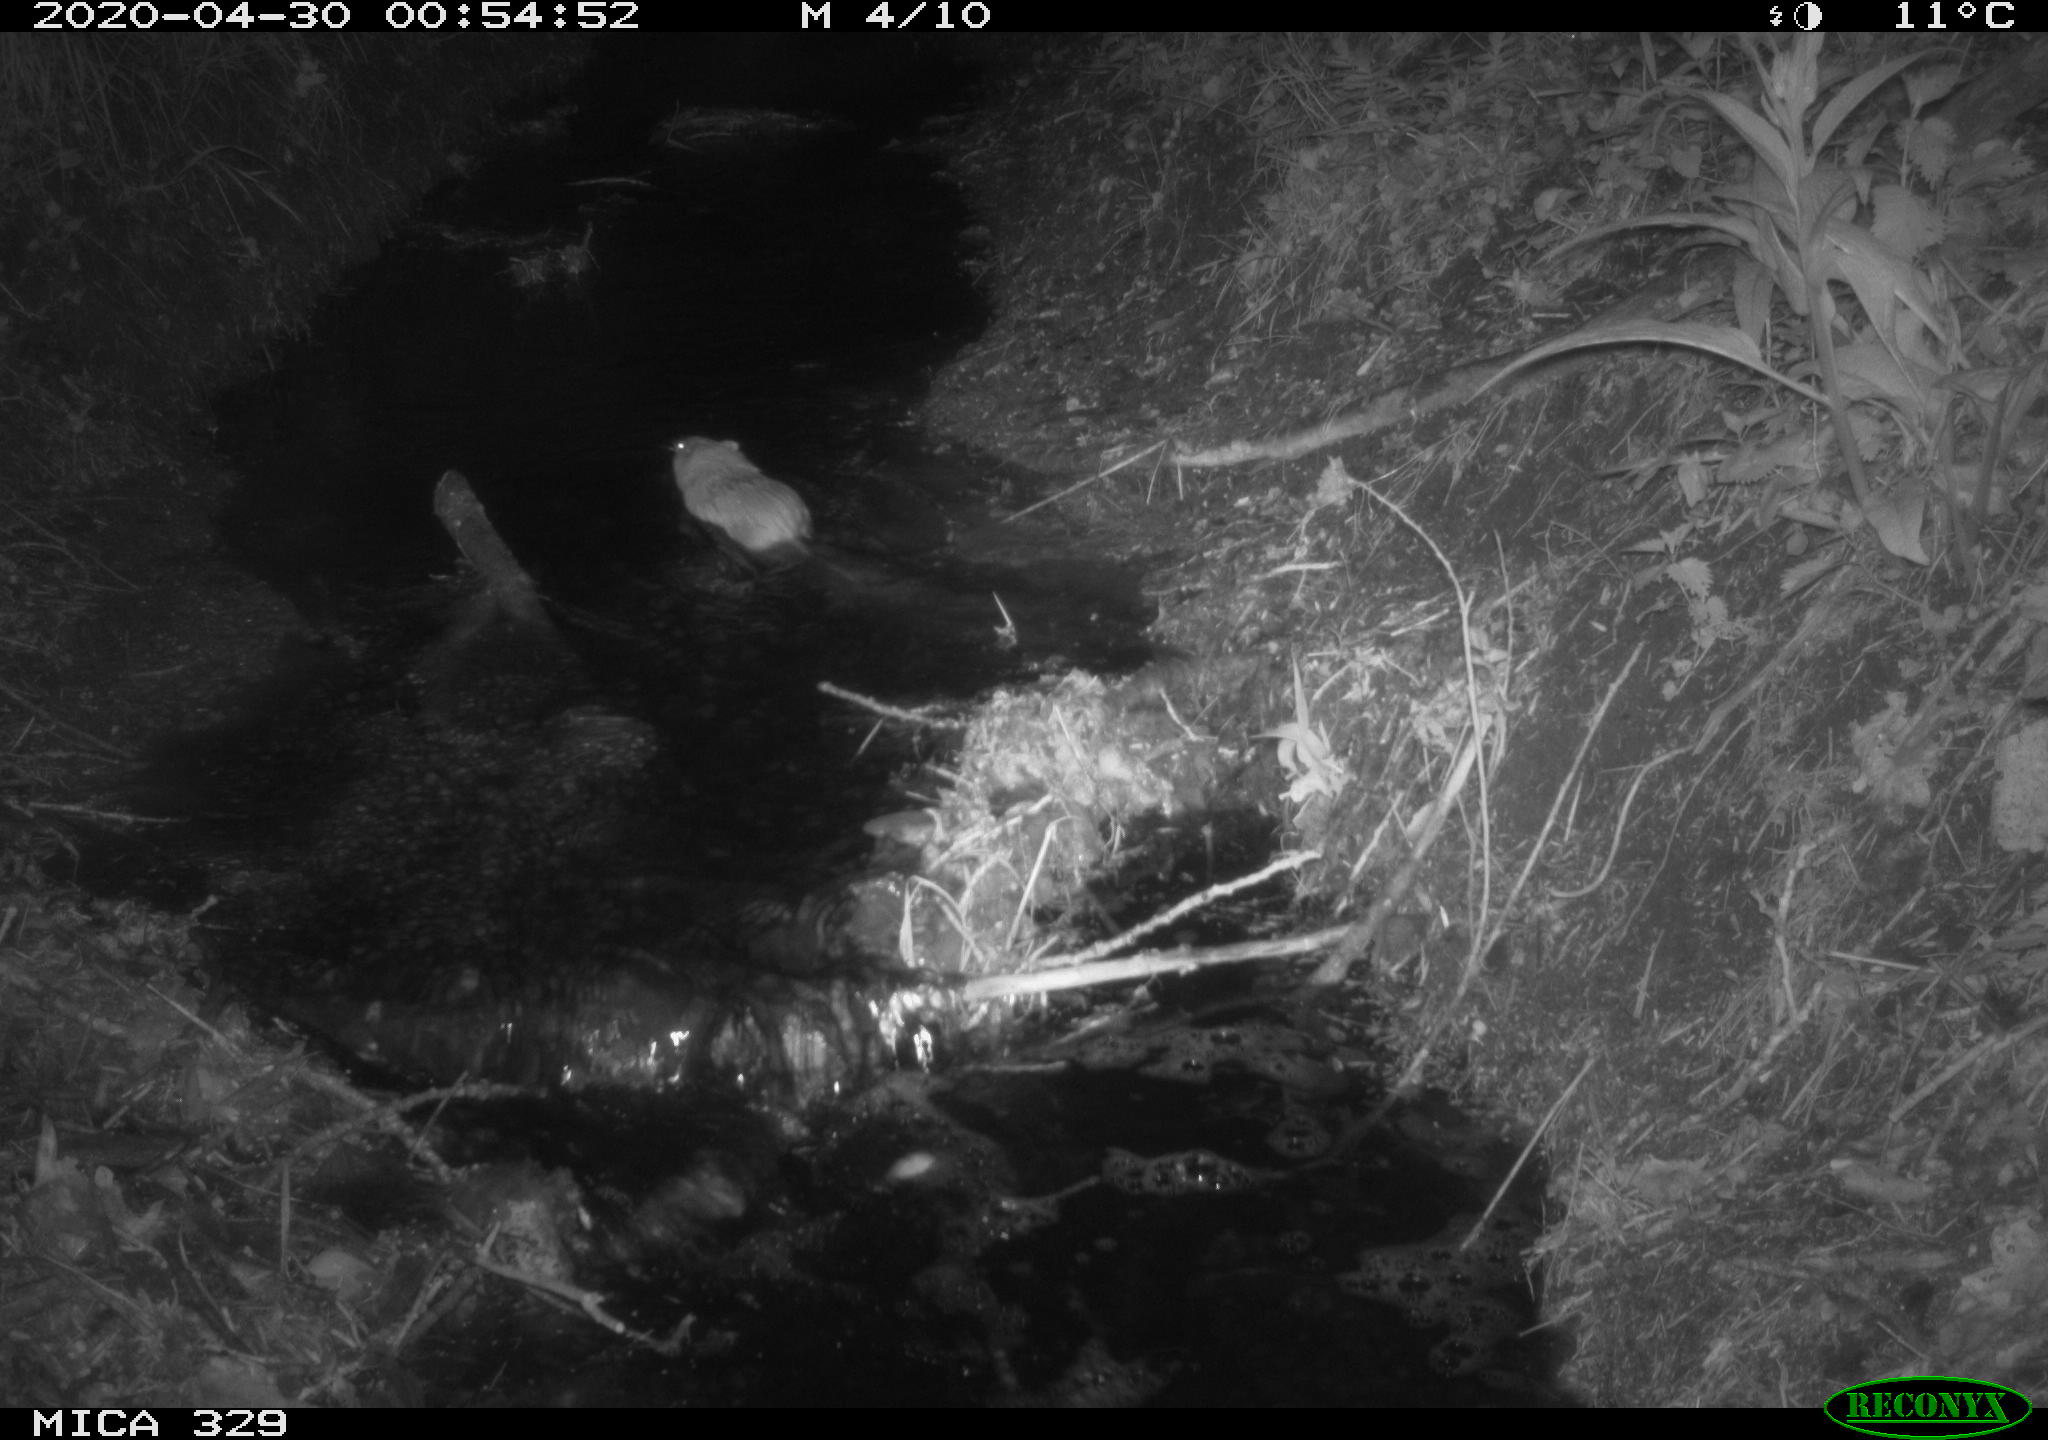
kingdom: Animalia
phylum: Chordata
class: Mammalia
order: Rodentia
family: Cricetidae
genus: Ondatra
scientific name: Ondatra zibethicus
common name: Muskrat
